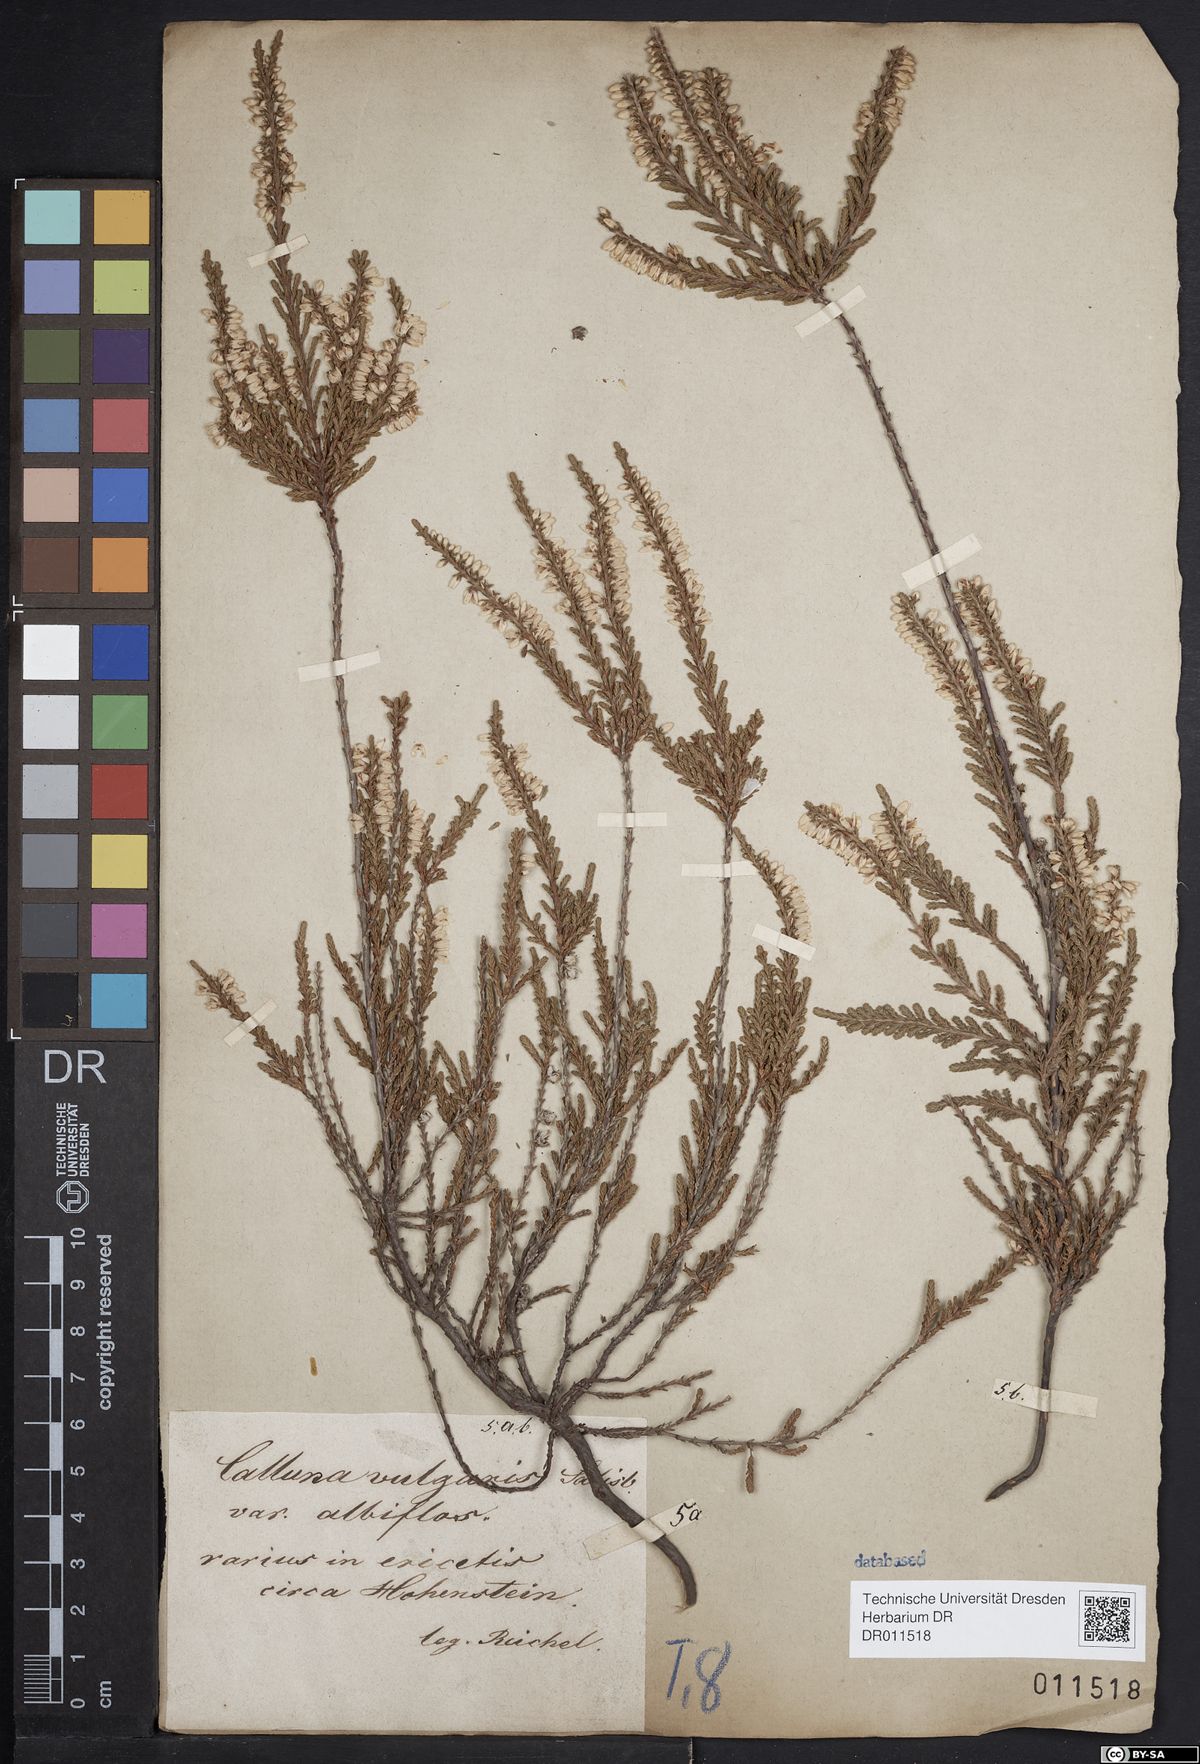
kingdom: Plantae
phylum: Tracheophyta
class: Magnoliopsida
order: Ericales
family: Ericaceae
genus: Calluna
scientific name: Calluna vulgaris
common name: Heather
